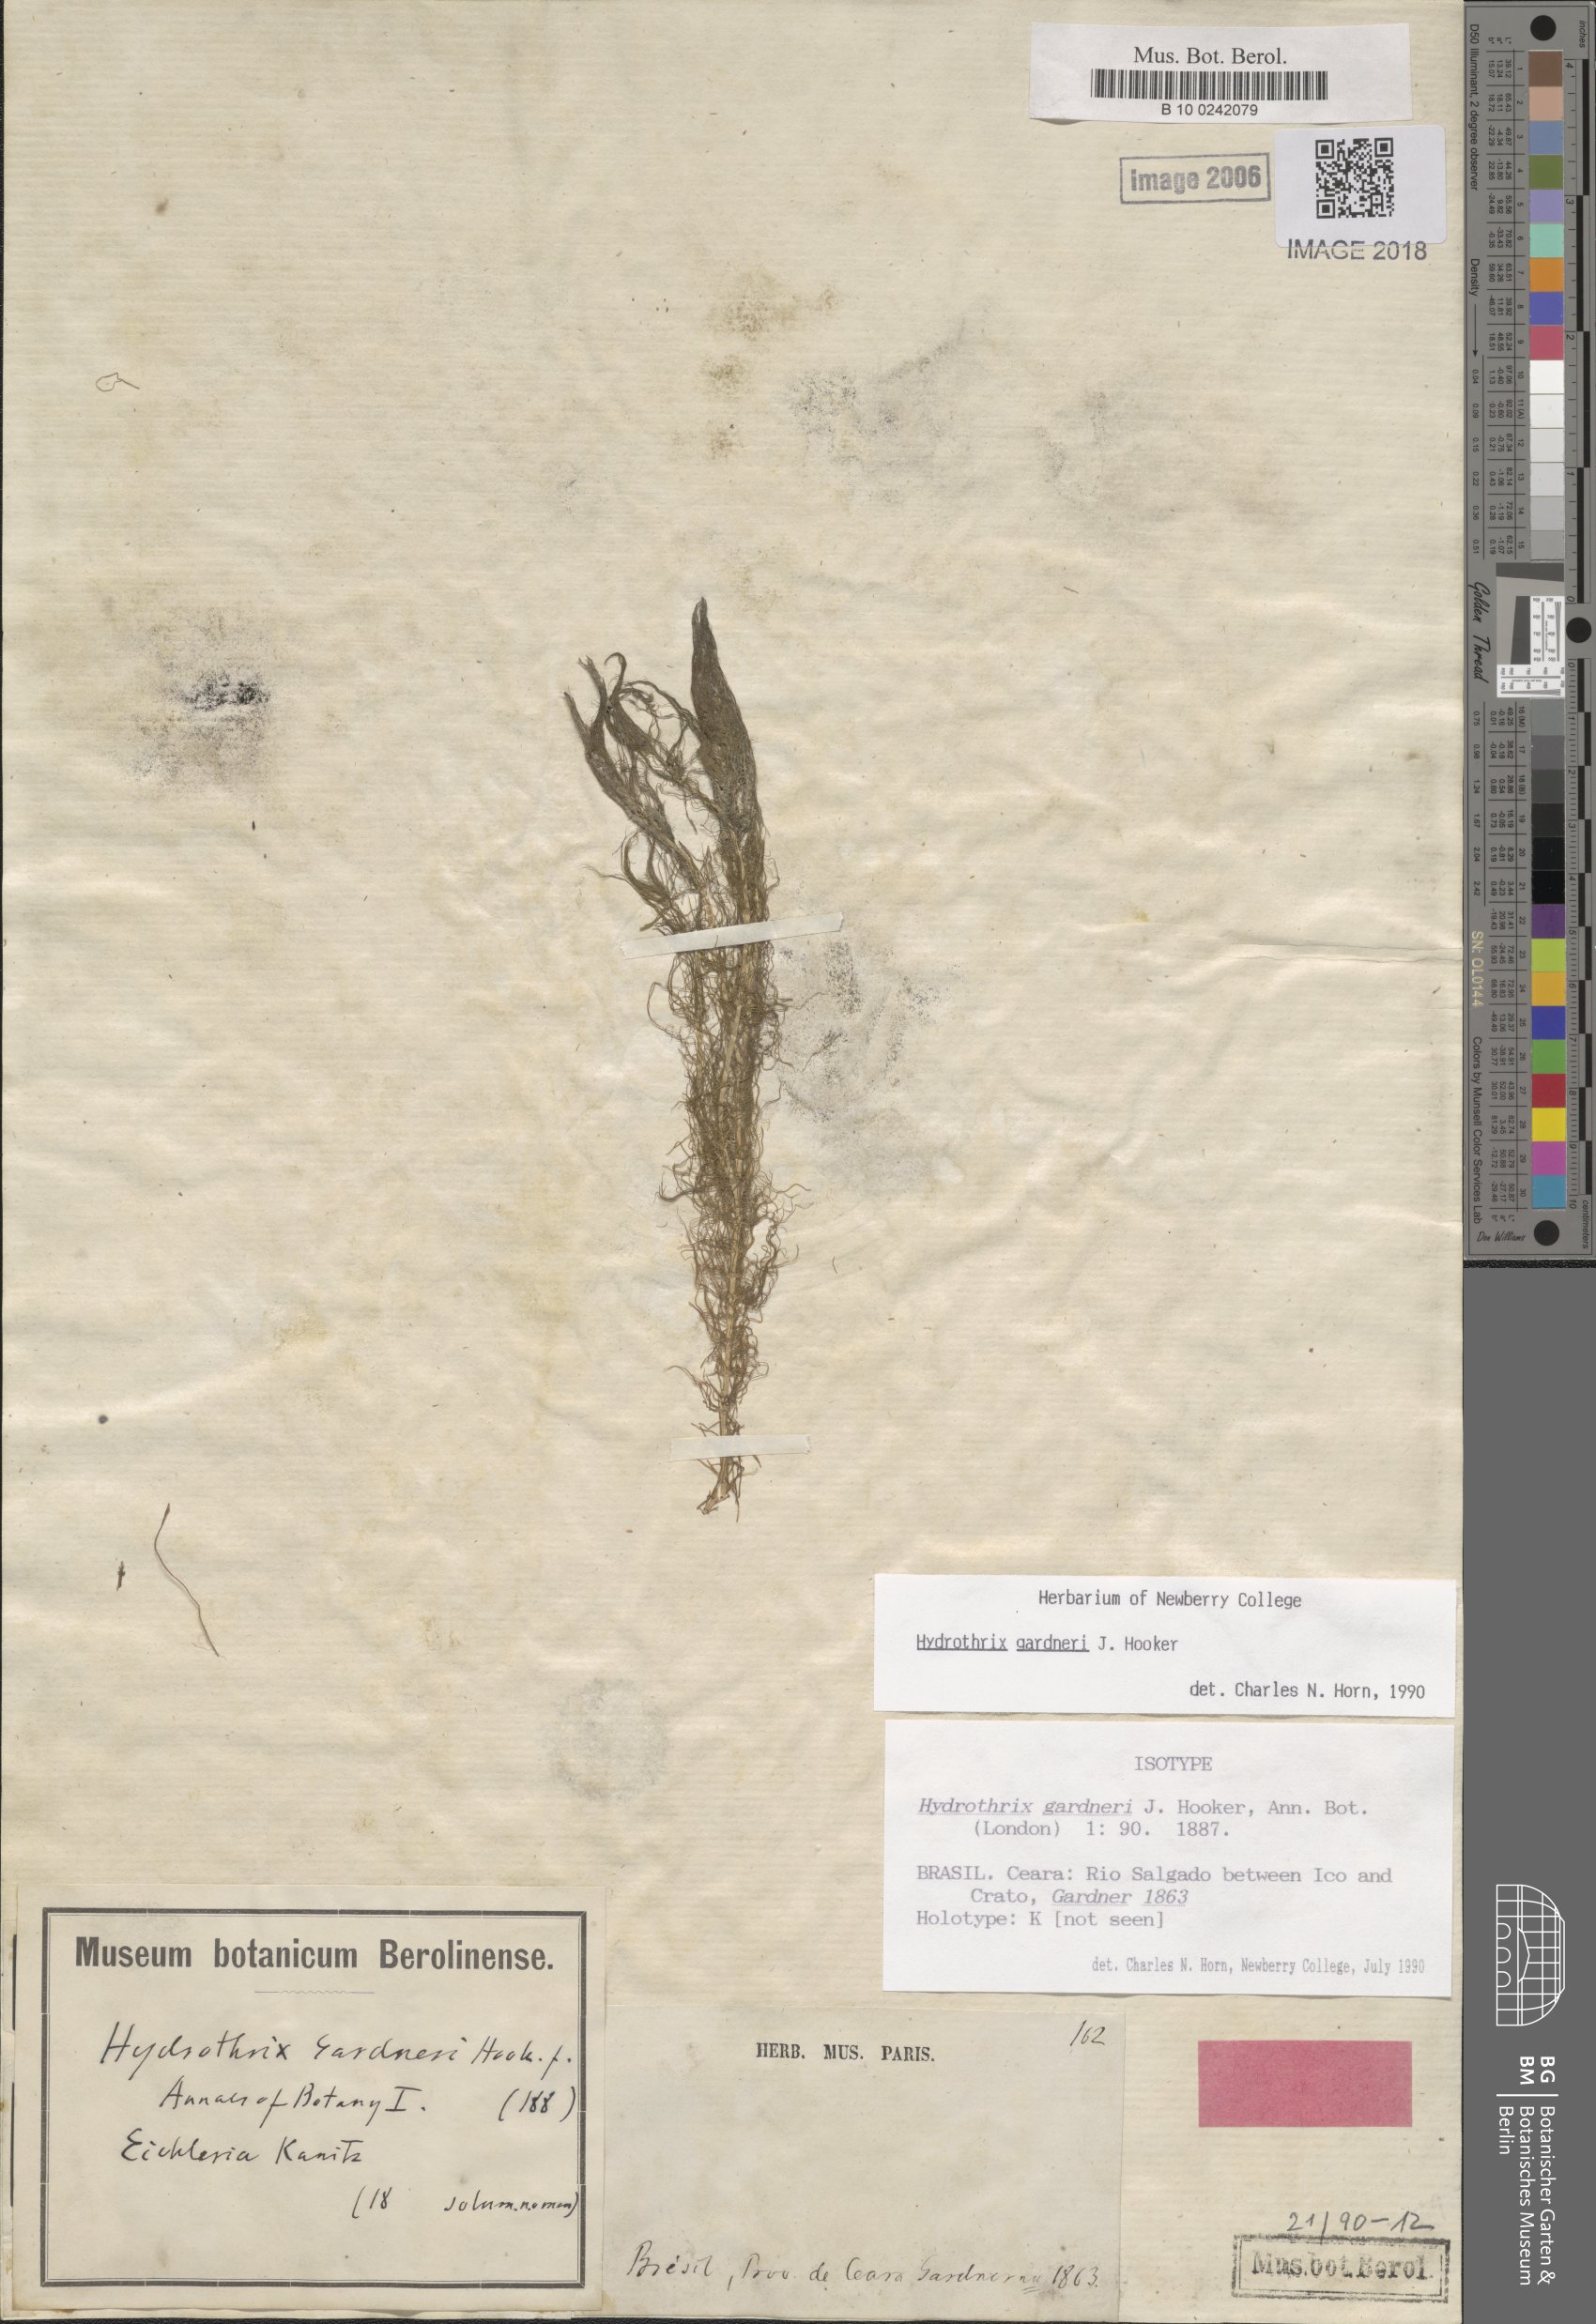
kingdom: Plantae
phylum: Tracheophyta
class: Liliopsida
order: Commelinales
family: Pontederiaceae
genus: Heteranthera
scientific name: Heteranthera gardneri
